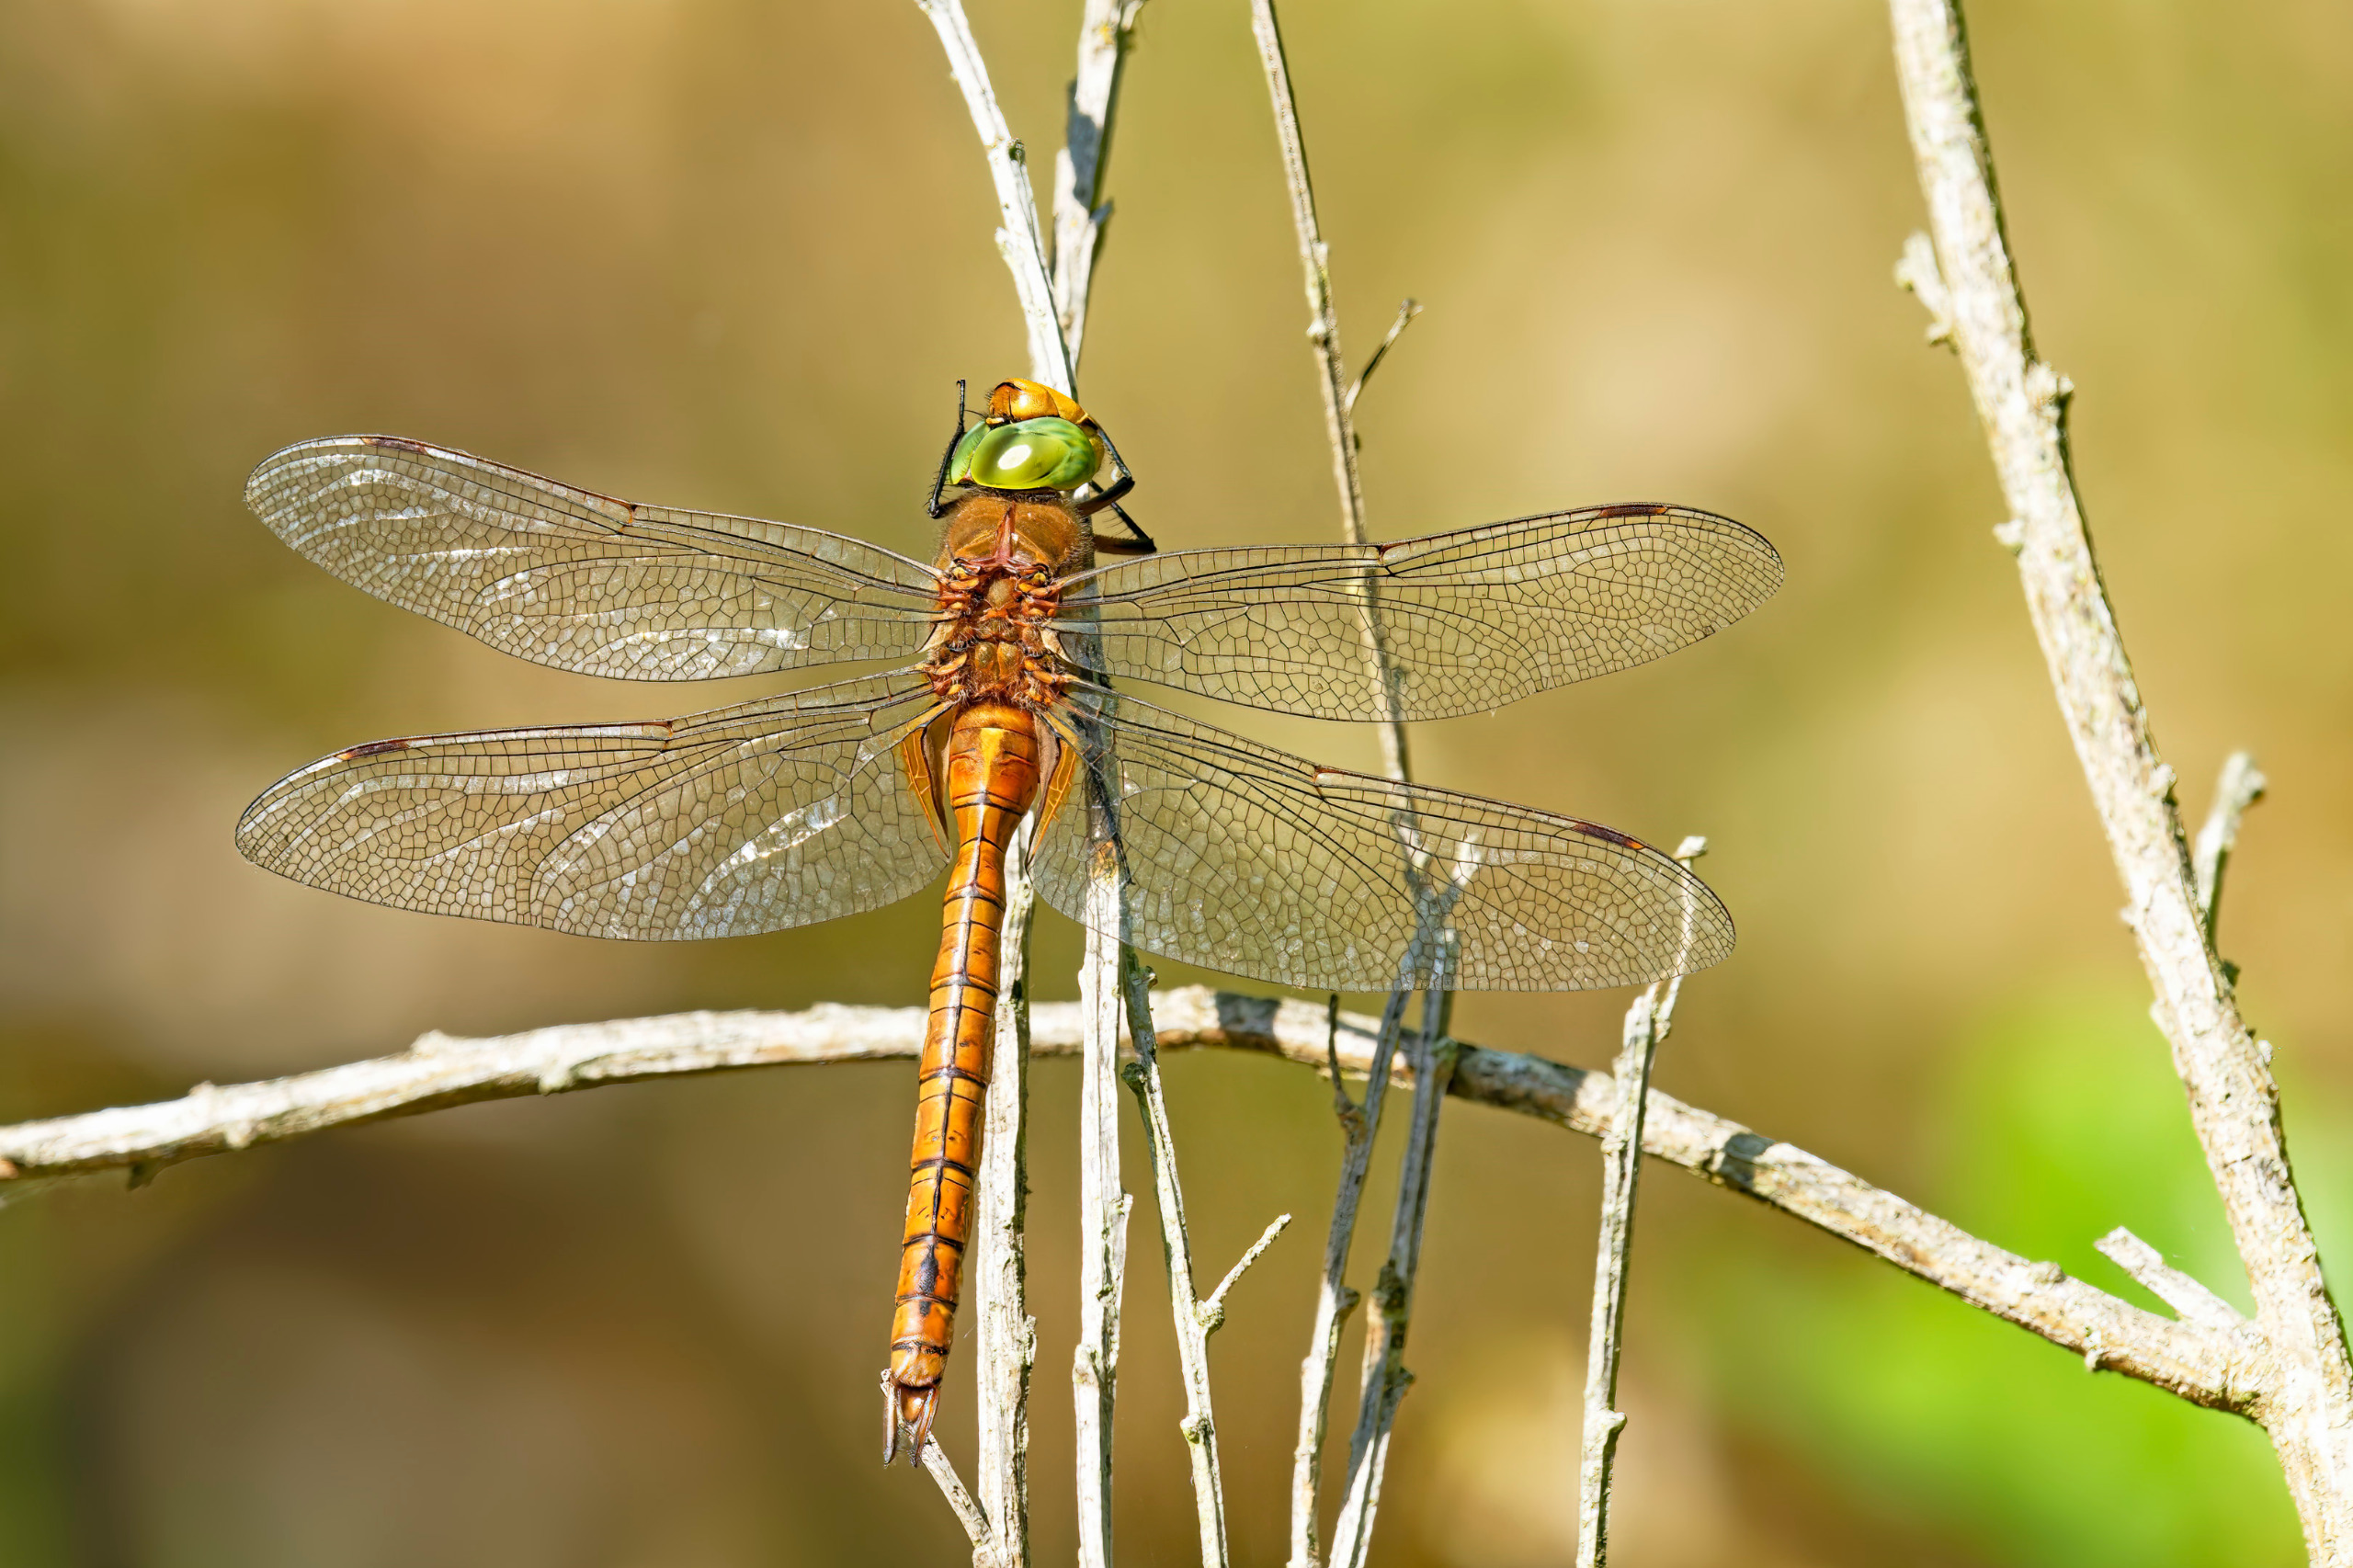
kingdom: Animalia
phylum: Arthropoda
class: Insecta
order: Odonata
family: Aeshnidae
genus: Aeshna
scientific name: Aeshna isoceles
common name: Kileplet-mosaikguldsmed
